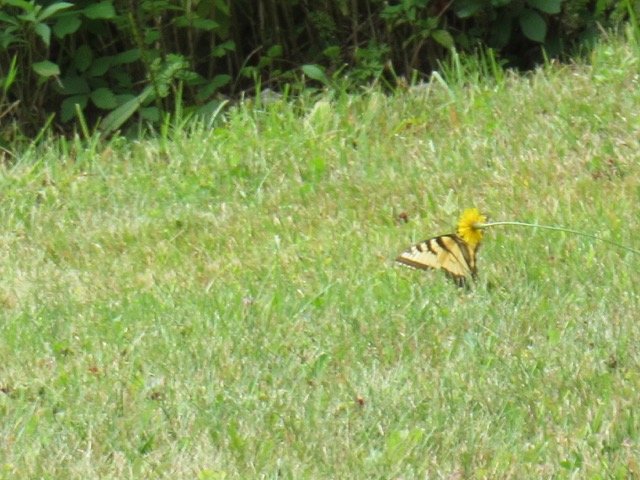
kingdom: Animalia
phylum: Arthropoda
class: Insecta
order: Lepidoptera
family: Papilionidae
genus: Pterourus
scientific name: Pterourus
